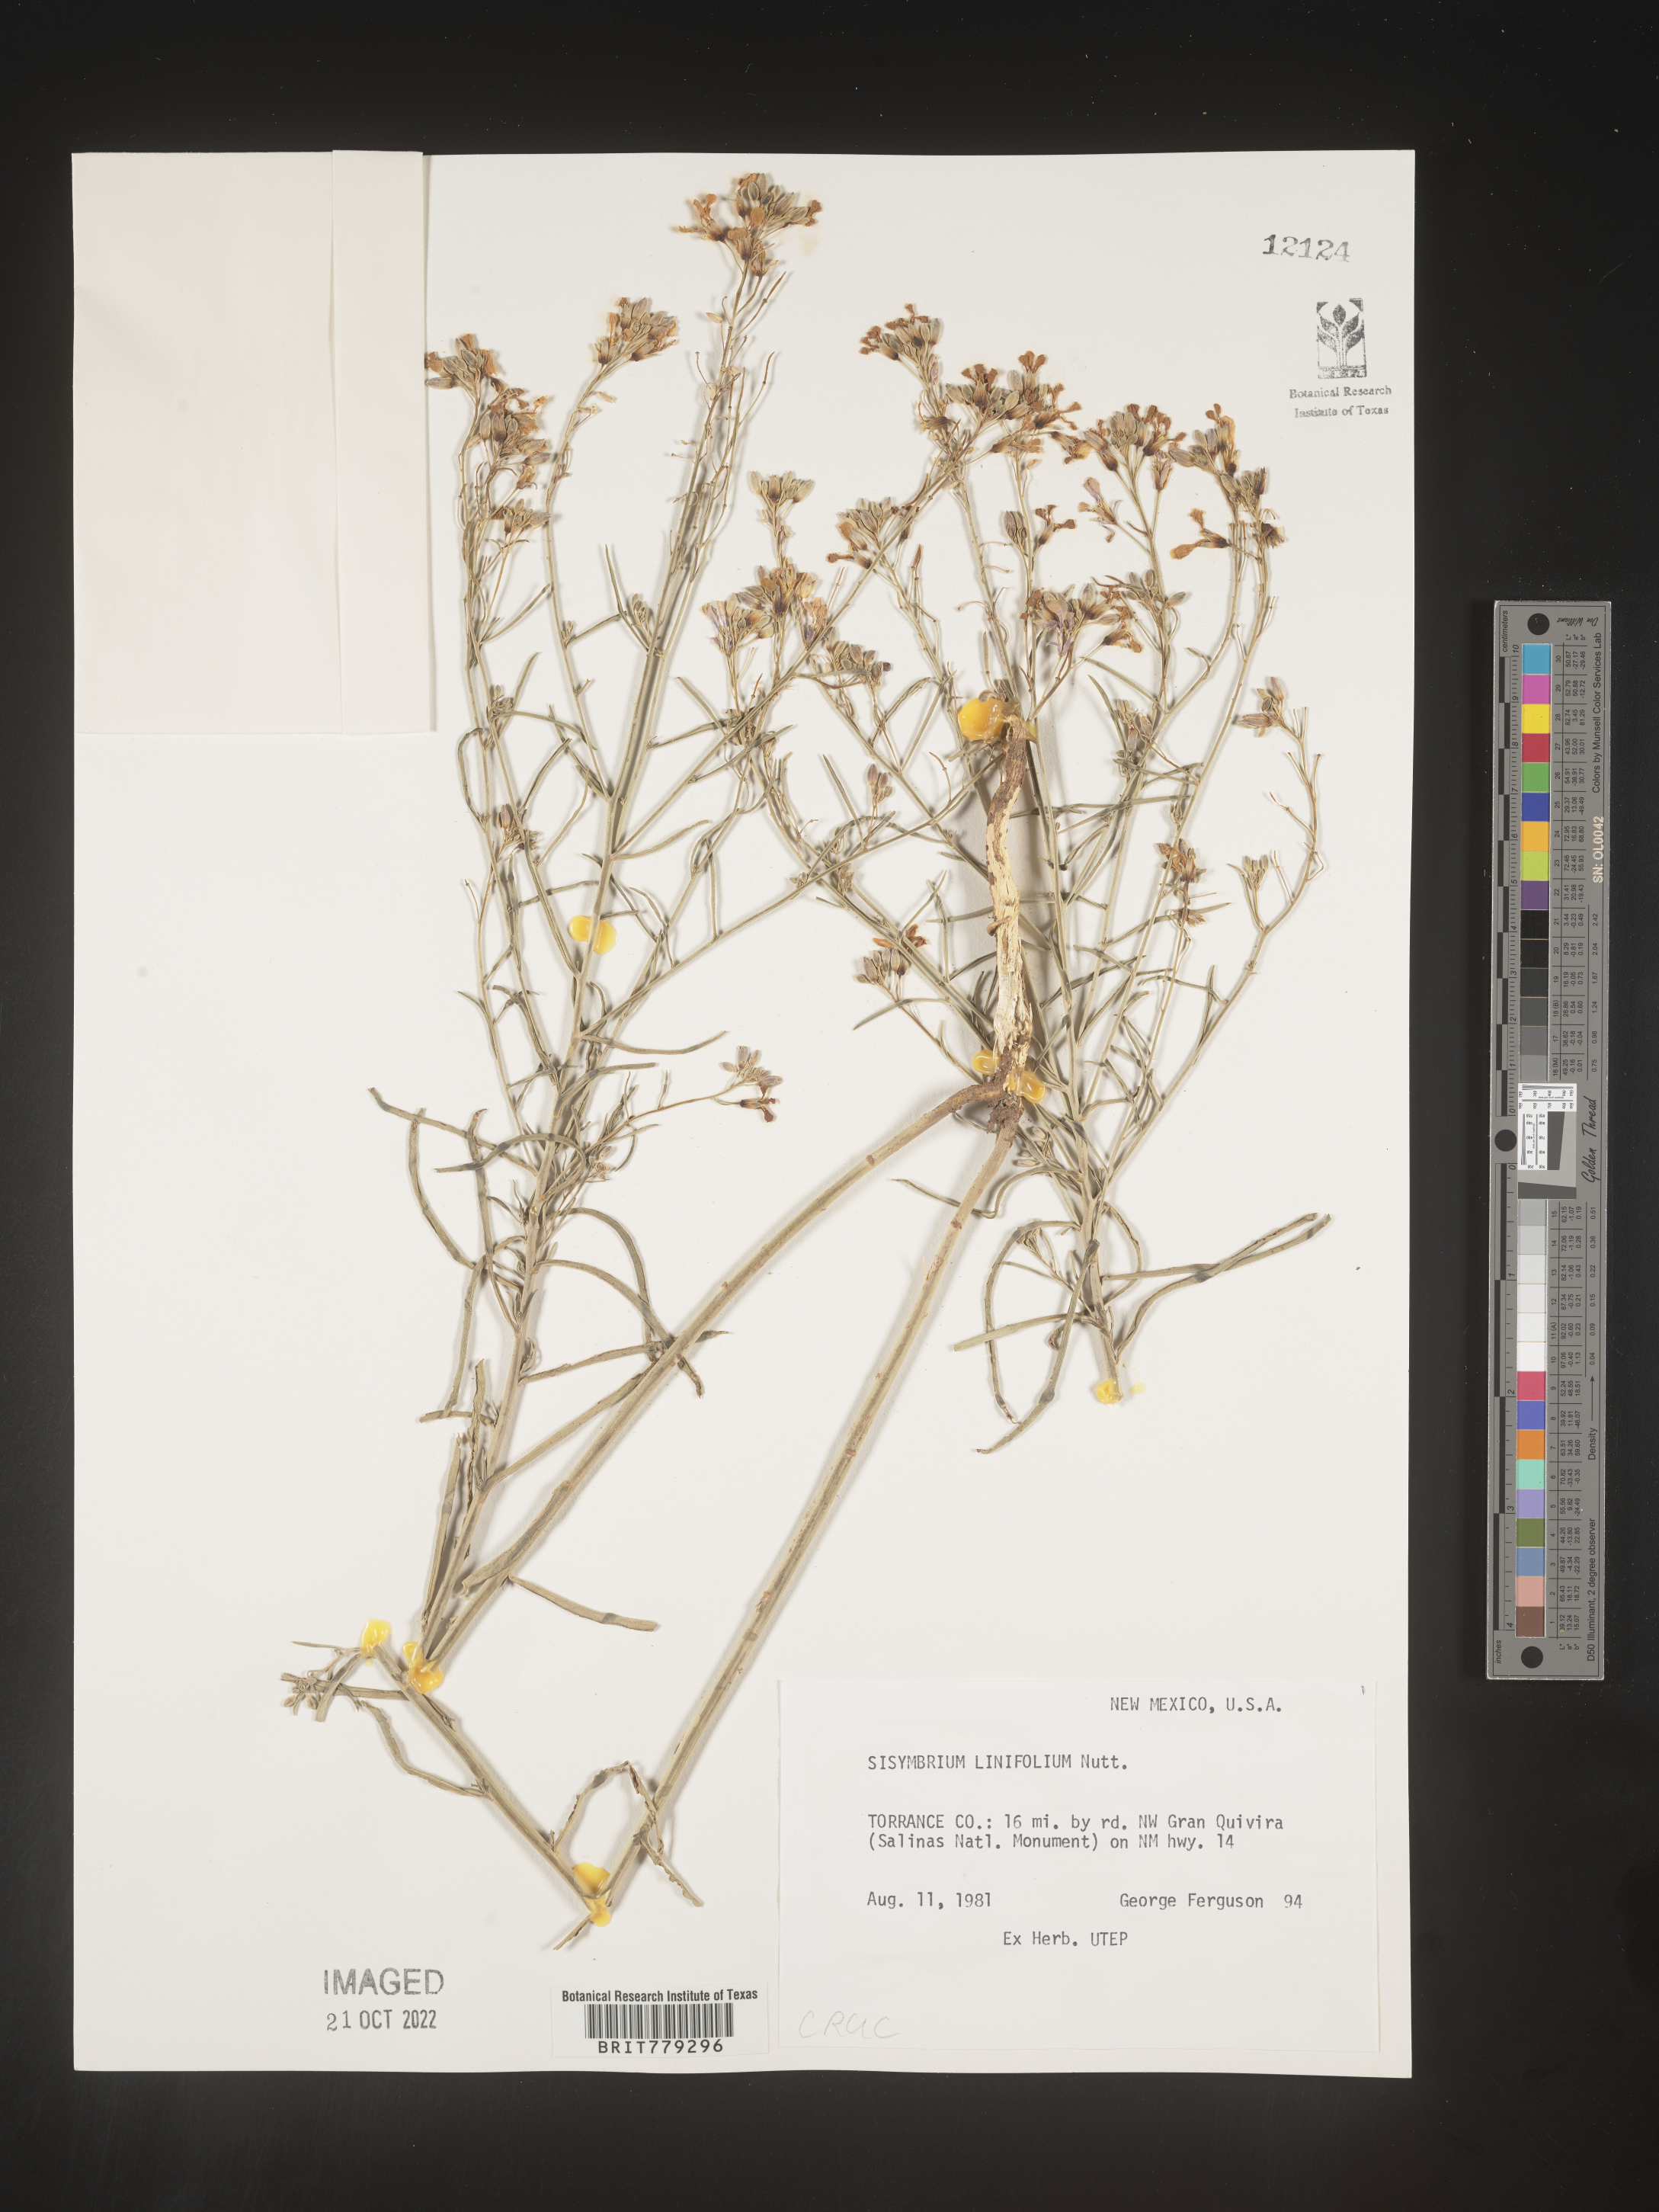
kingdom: Plantae
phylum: Tracheophyta
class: Magnoliopsida
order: Brassicales
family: Brassicaceae
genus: Sisymbrium
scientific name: Sisymbrium
